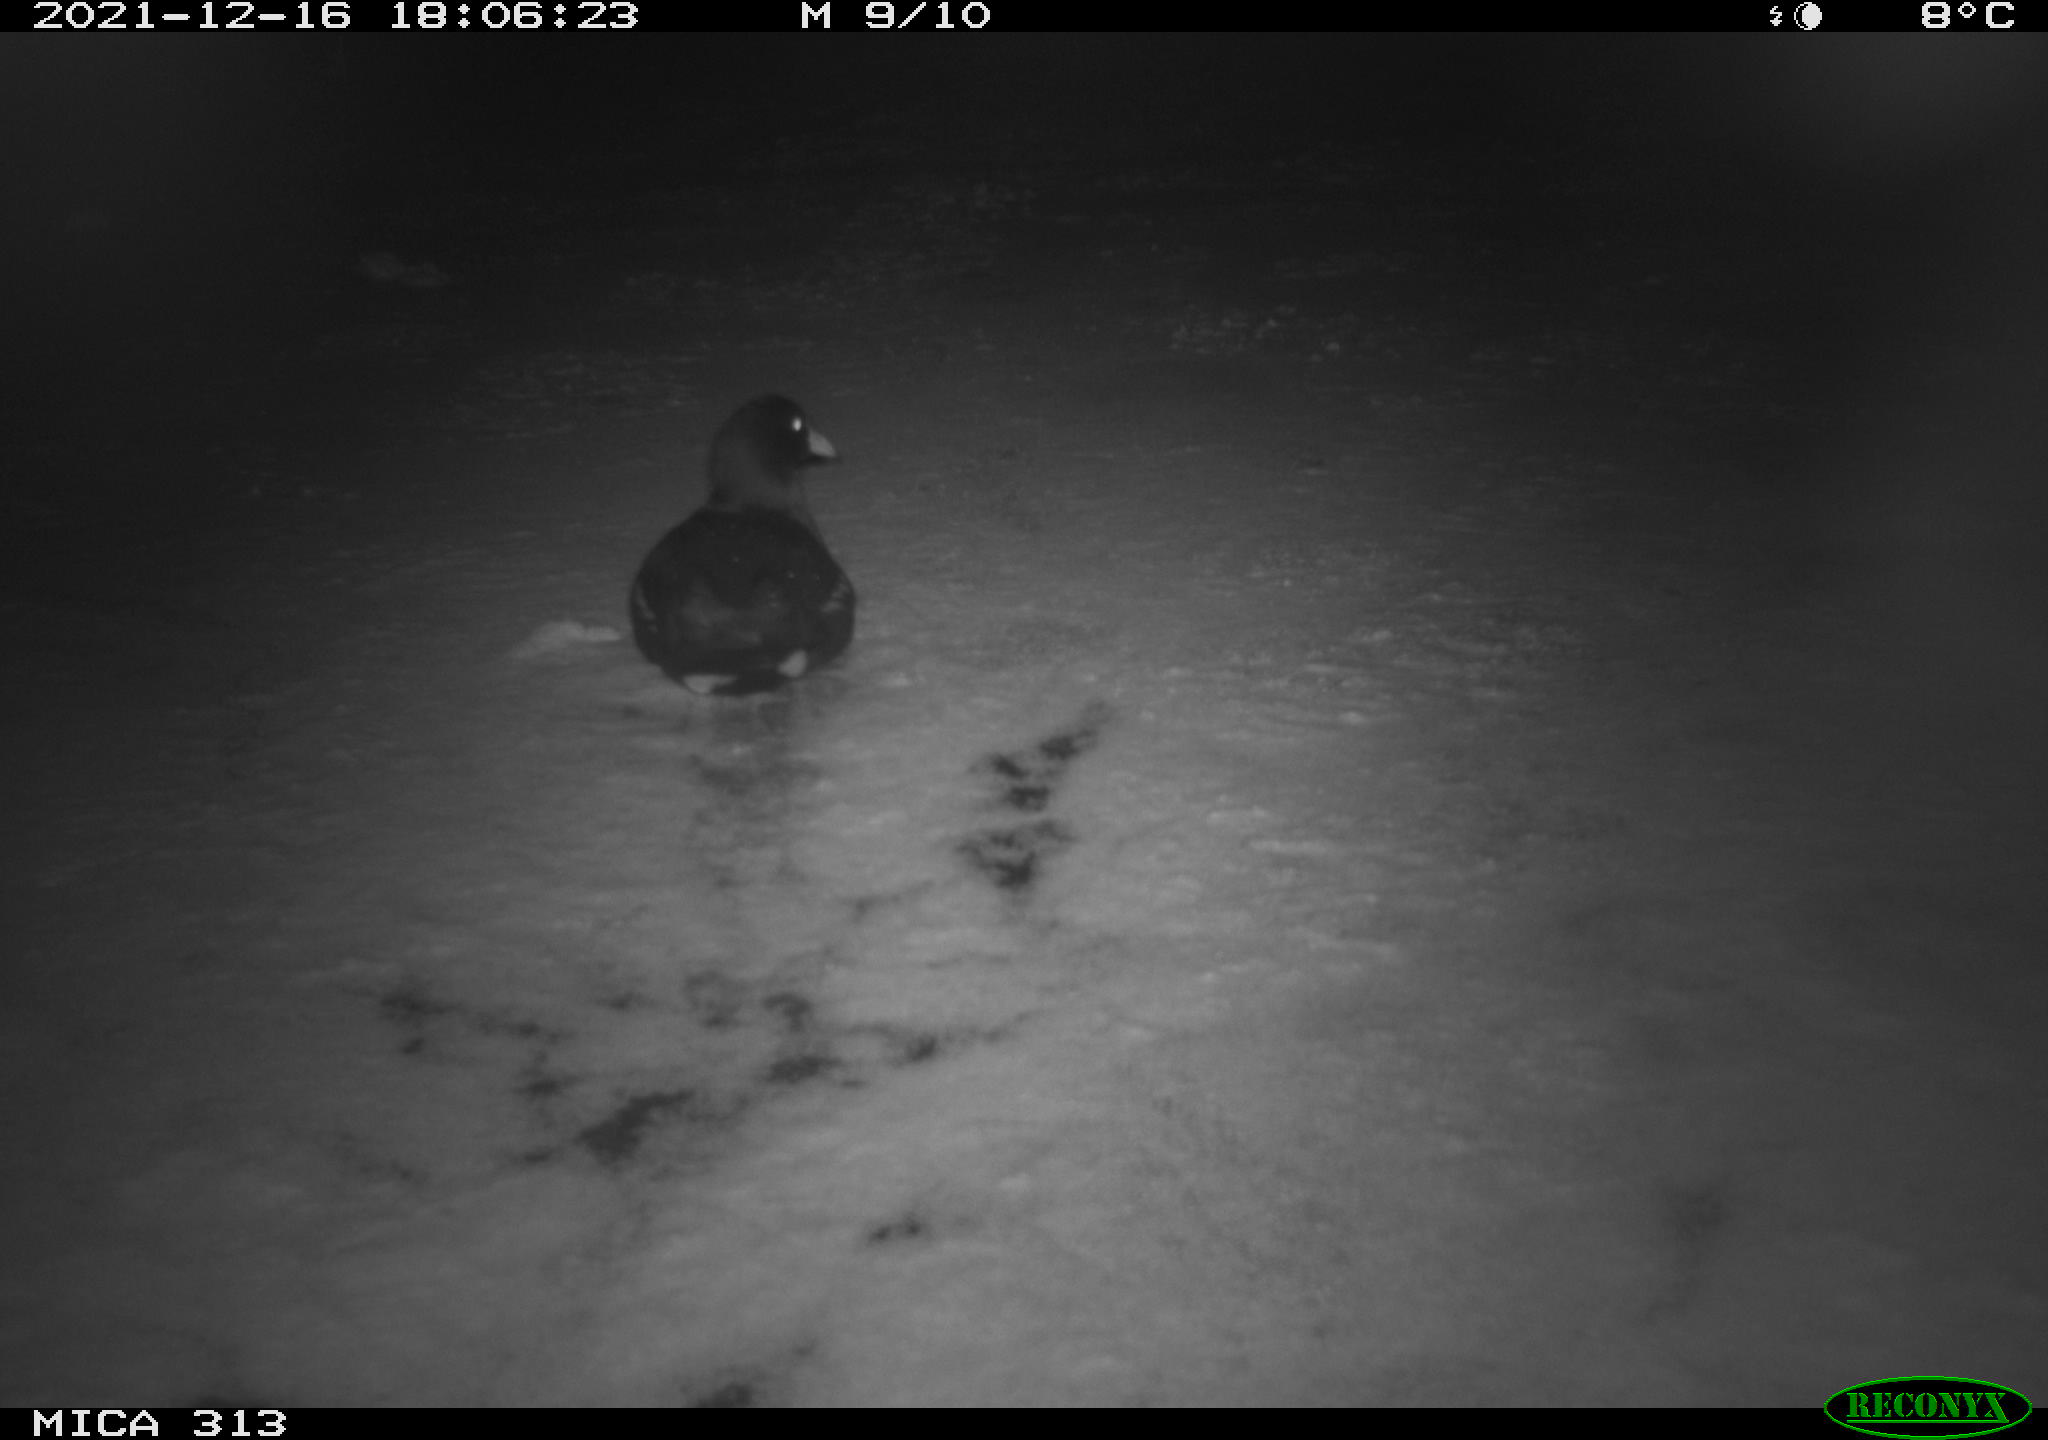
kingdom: Animalia
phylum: Chordata
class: Aves
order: Gruiformes
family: Rallidae
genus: Gallinula
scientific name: Gallinula chloropus
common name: Common moorhen
